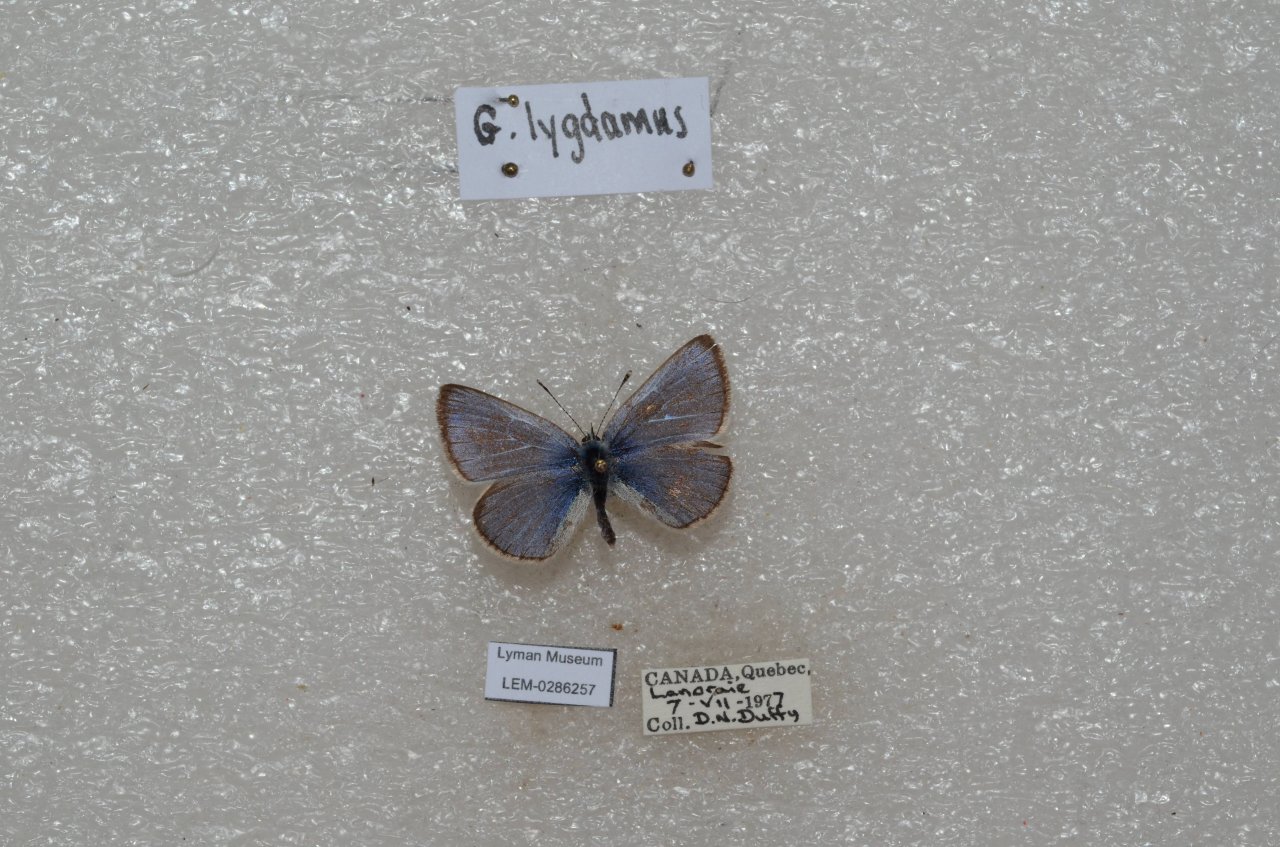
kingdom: Animalia
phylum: Arthropoda
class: Insecta
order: Lepidoptera
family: Lycaenidae
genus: Glaucopsyche
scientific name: Glaucopsyche lygdamus
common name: Silvery Blue
